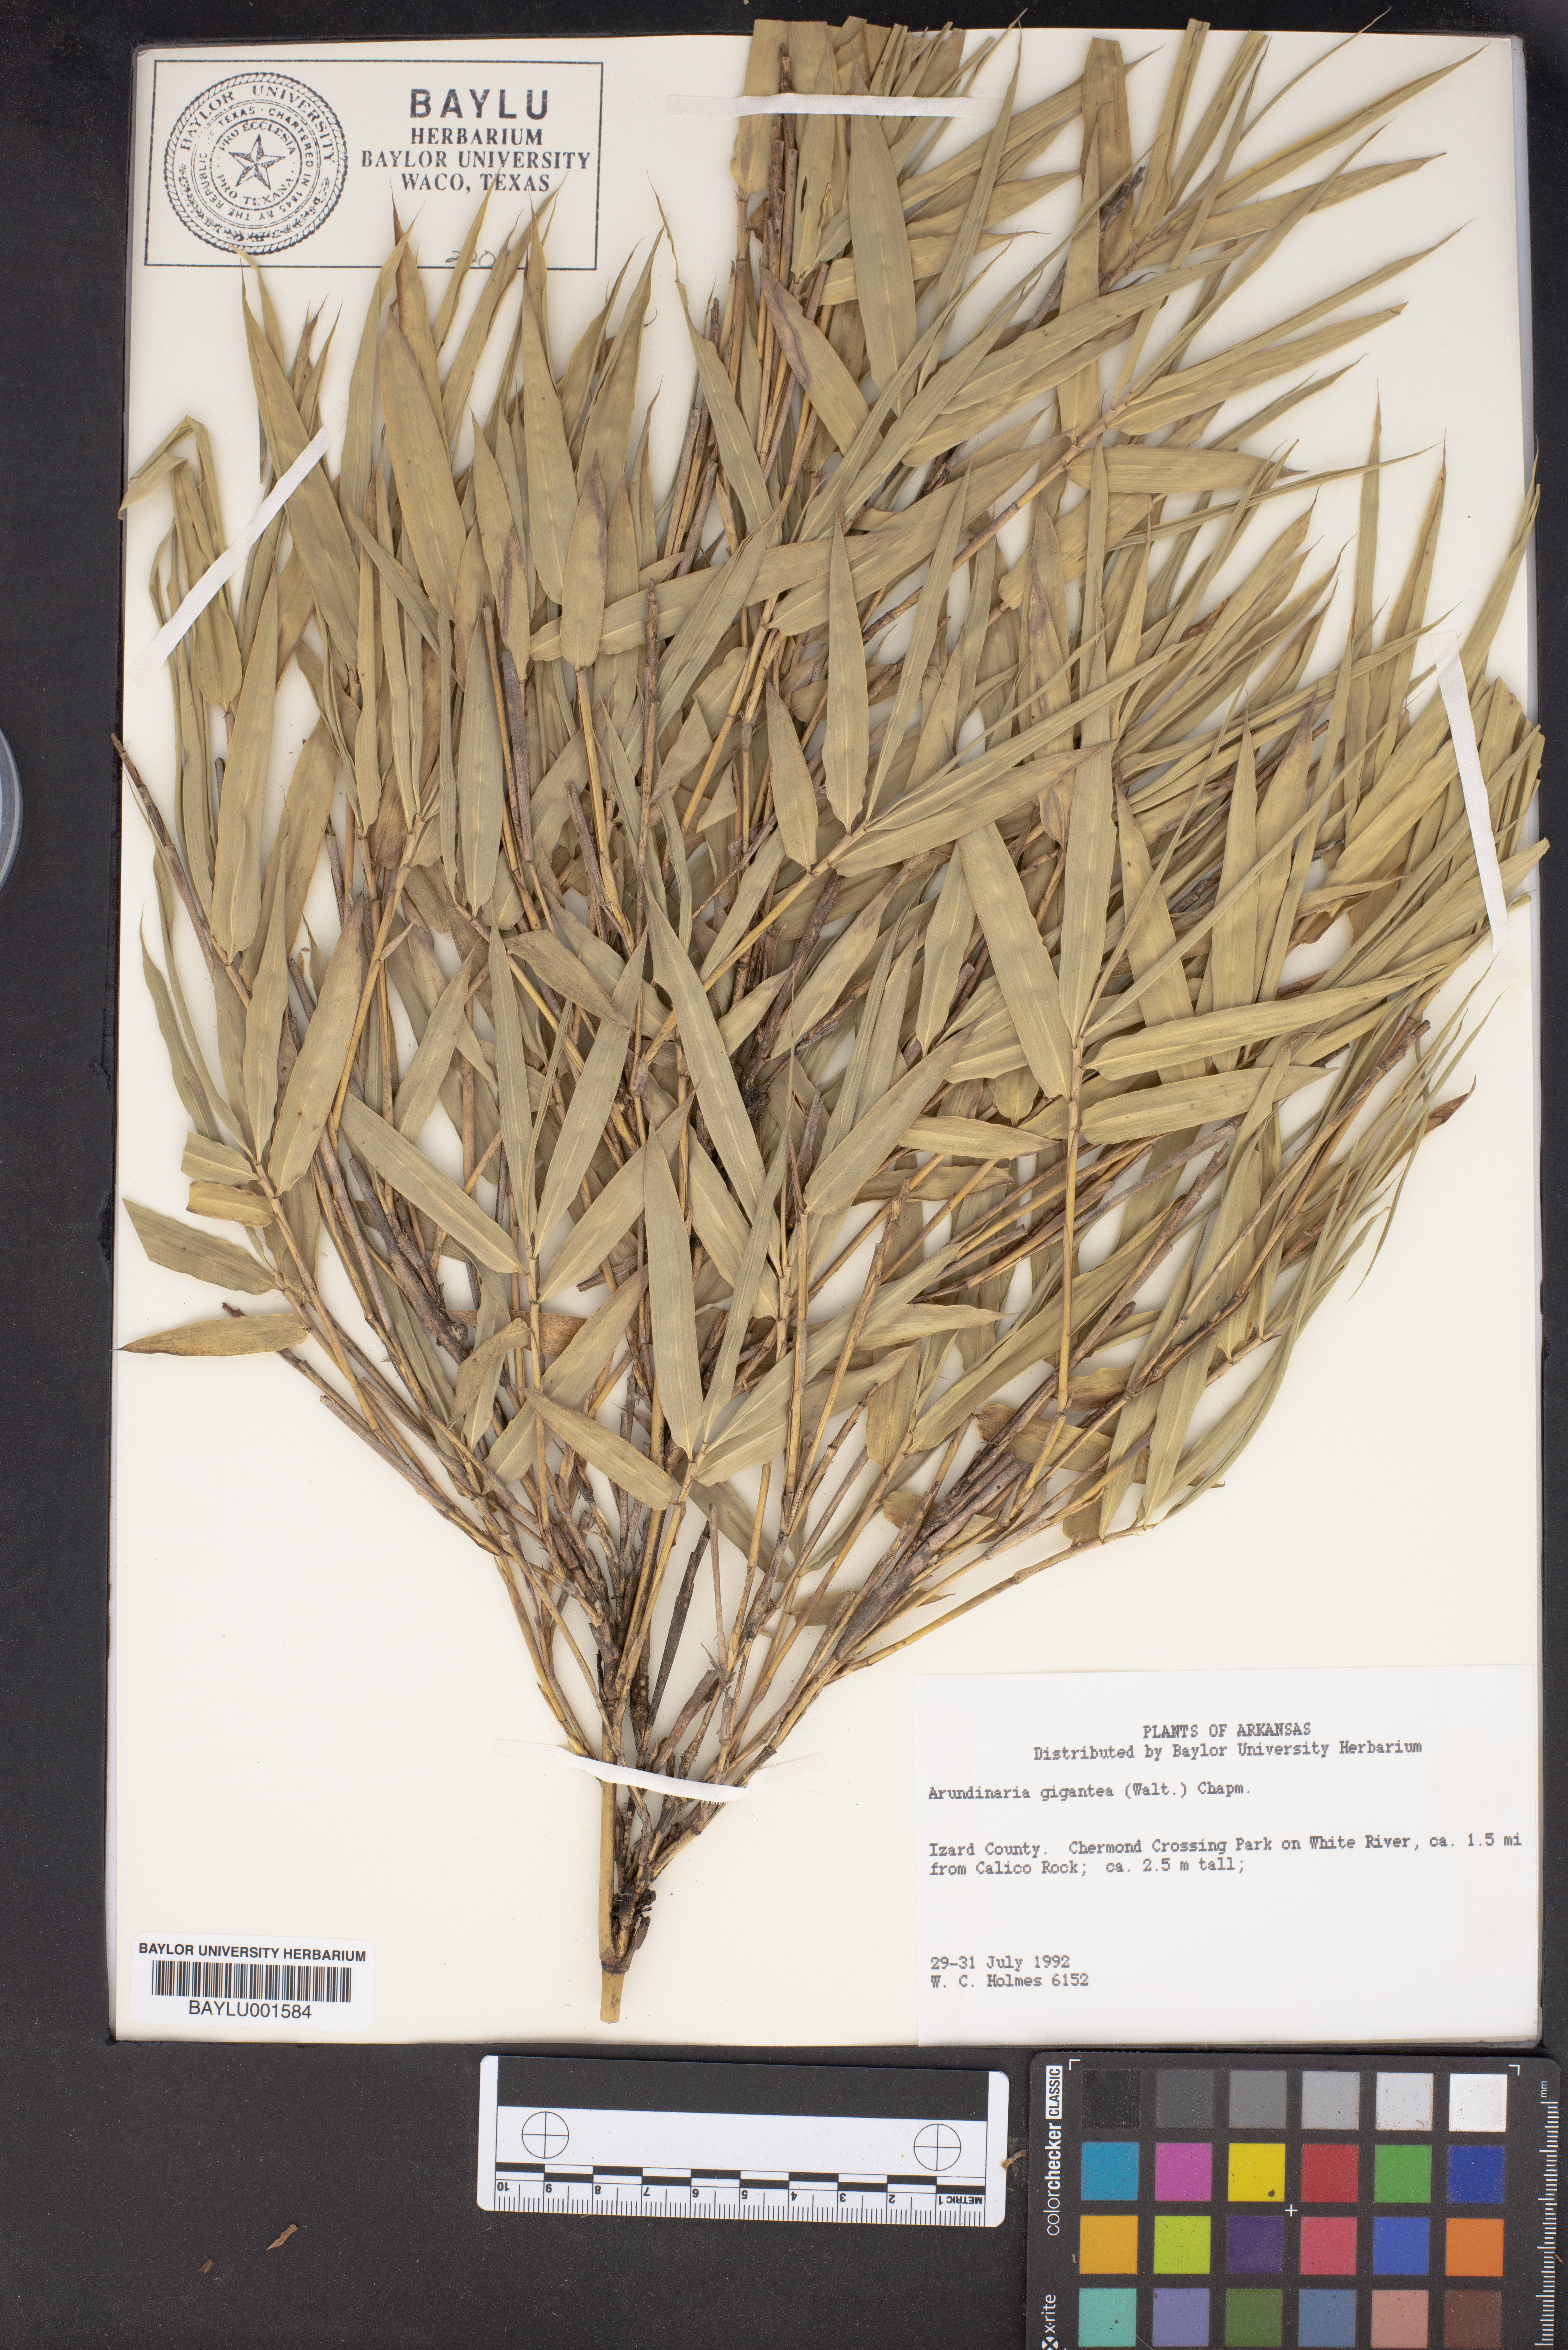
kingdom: Plantae
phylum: Tracheophyta
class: Liliopsida
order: Poales
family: Poaceae
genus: Arundinaria
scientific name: Arundinaria gigantea
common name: Giant cane
